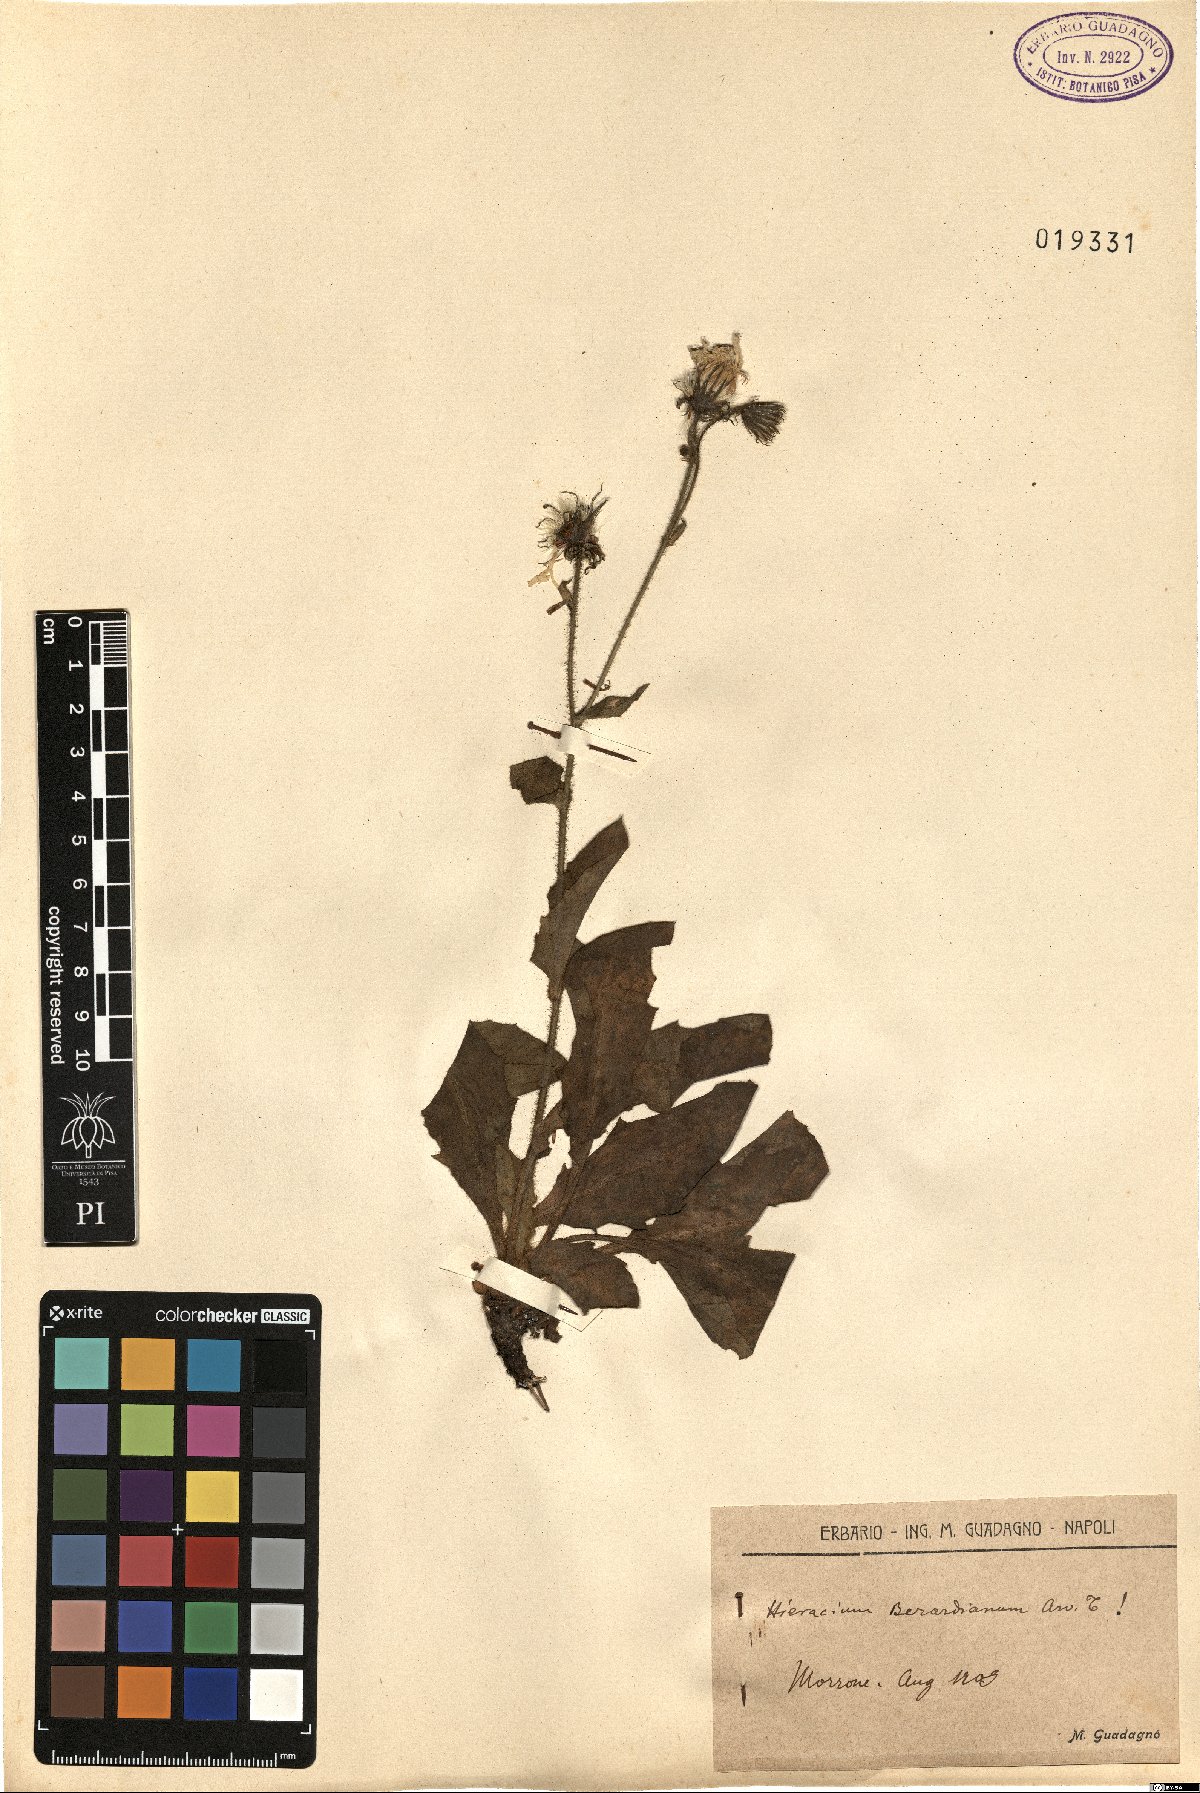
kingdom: Plantae
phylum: Tracheophyta
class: Magnoliopsida
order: Asterales
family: Asteraceae
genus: Hieracium
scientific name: Hieracium amplexicaule
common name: Sticky hawkweed
